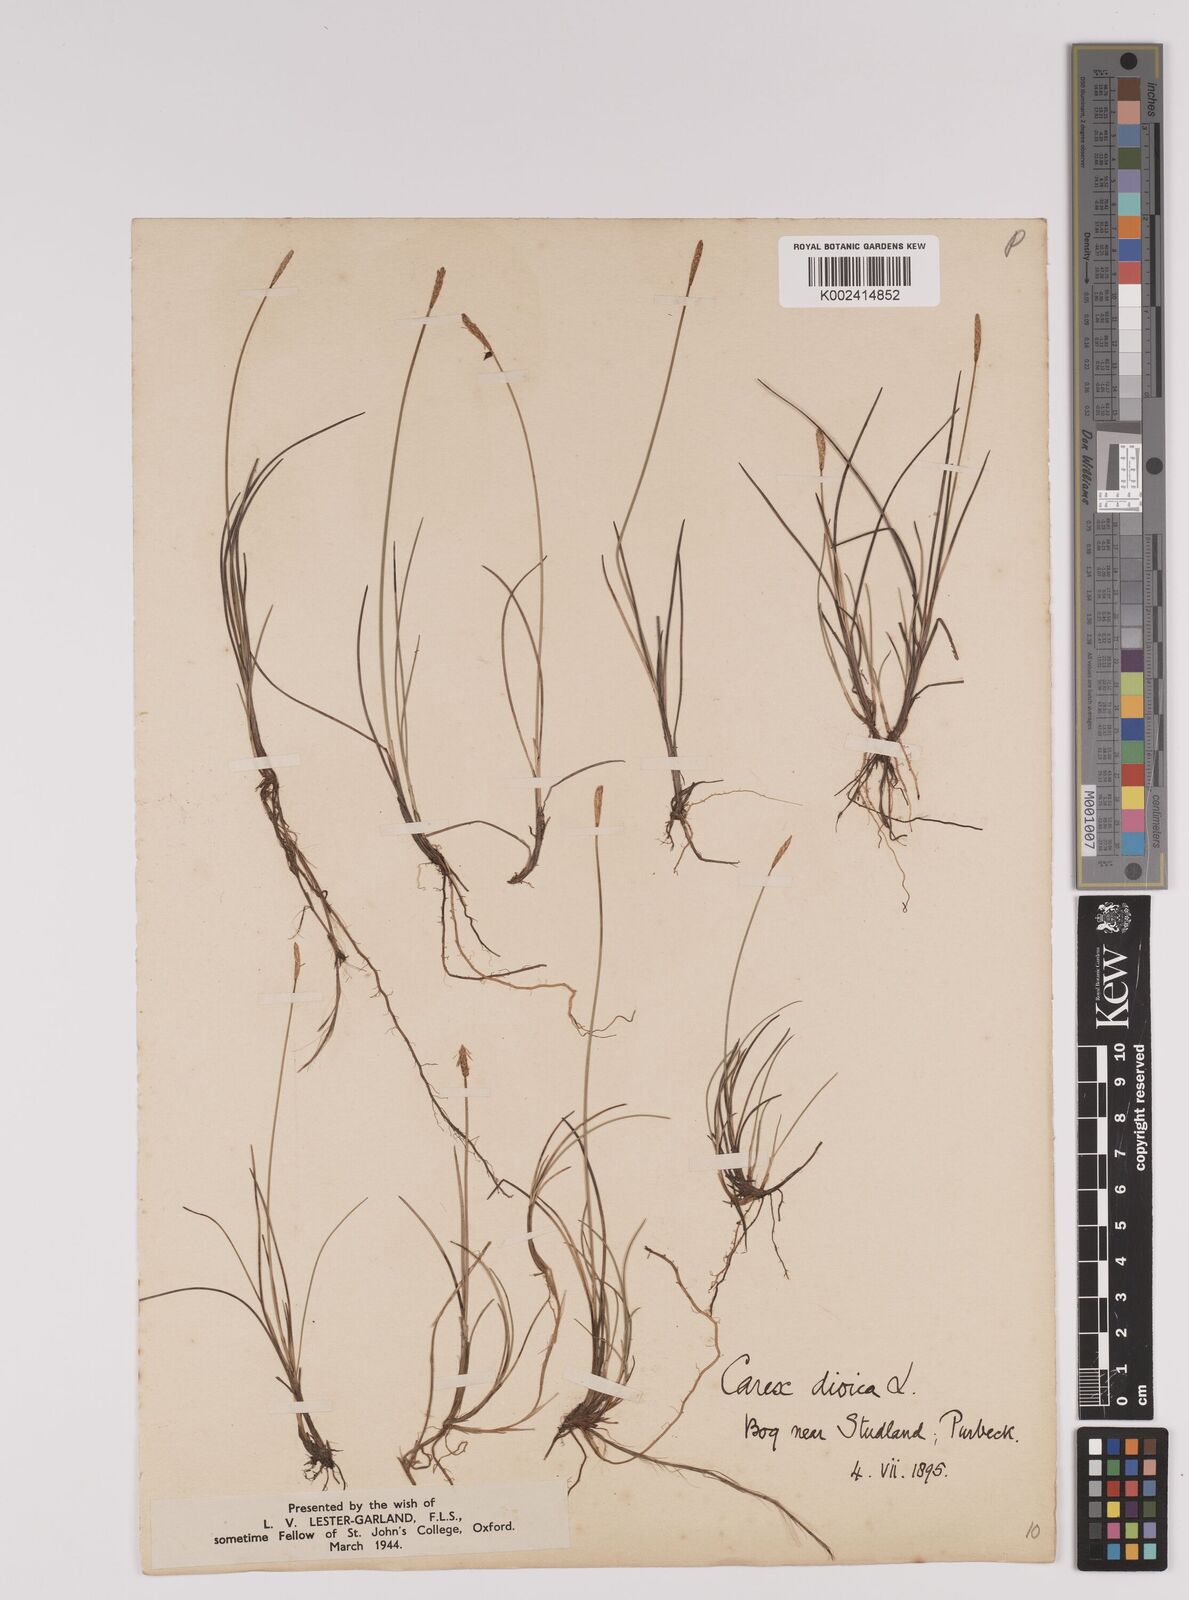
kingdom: Plantae
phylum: Tracheophyta
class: Liliopsida
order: Poales
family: Cyperaceae
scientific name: Cyperaceae
